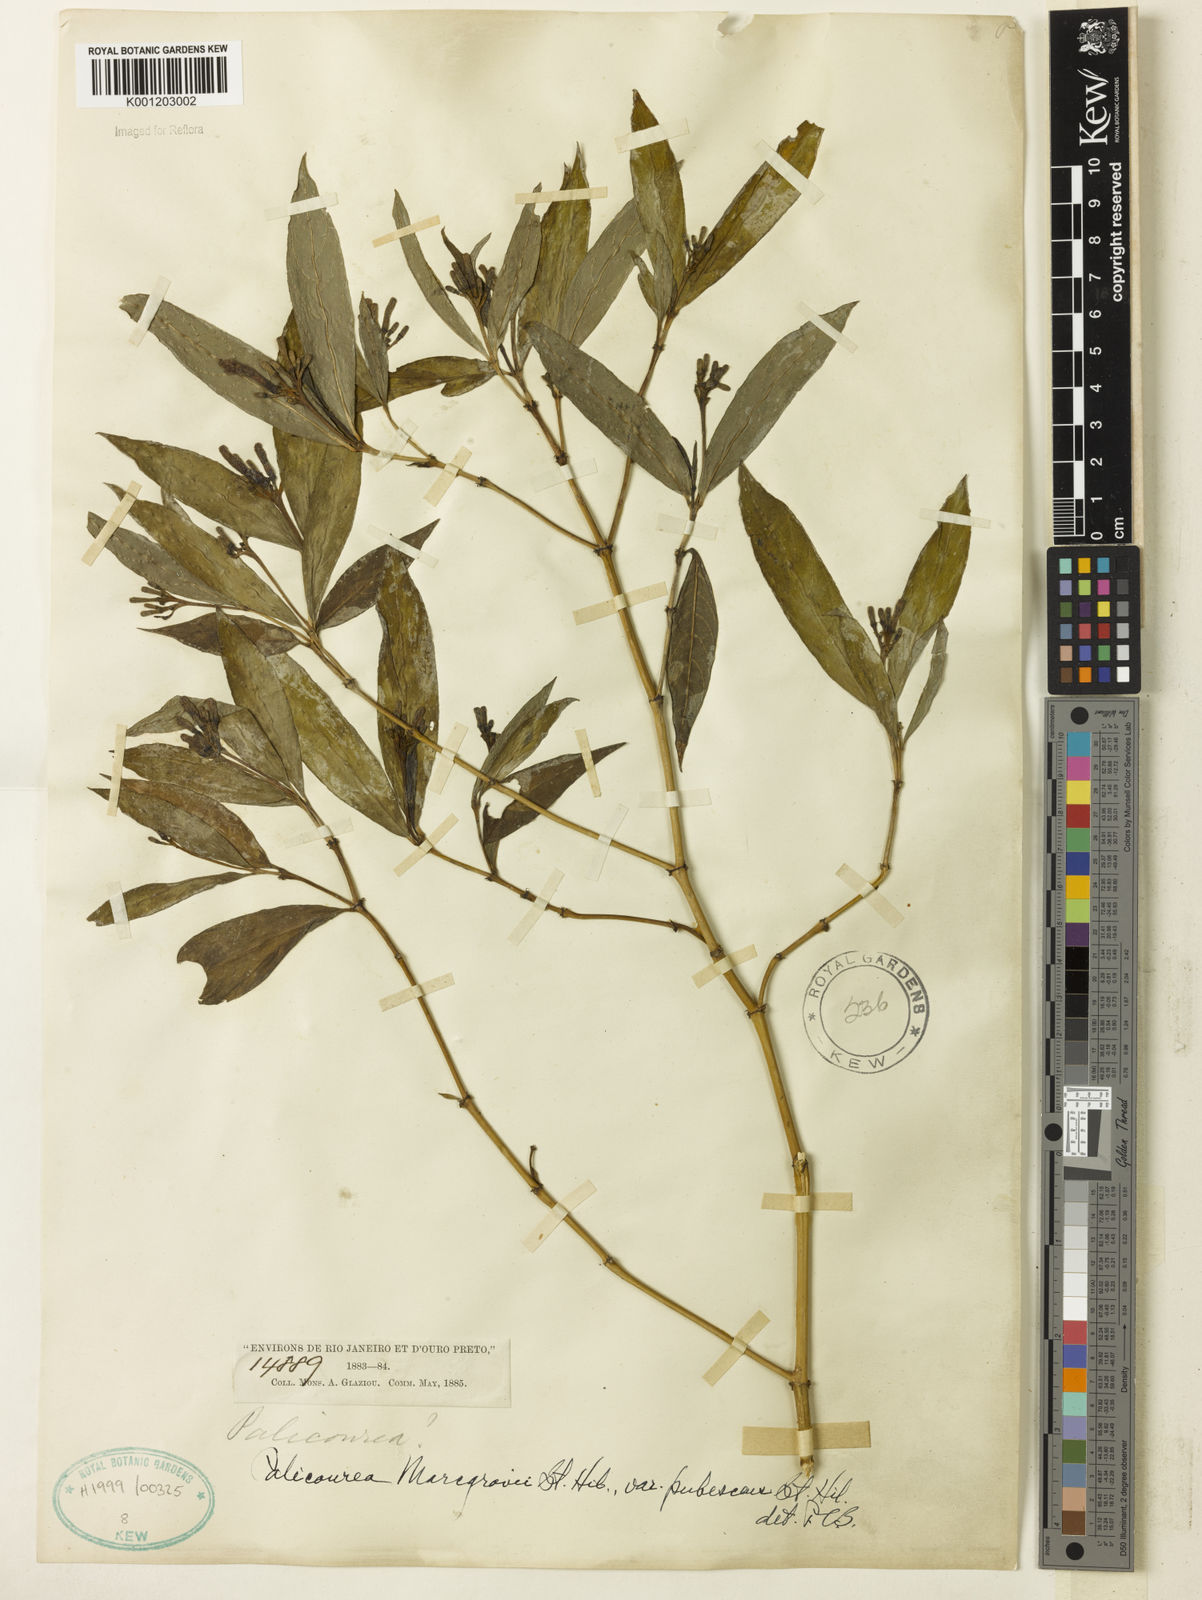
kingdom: Plantae
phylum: Tracheophyta
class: Magnoliopsida
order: Gentianales
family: Rubiaceae
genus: Palicourea
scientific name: Palicourea marcgravii
